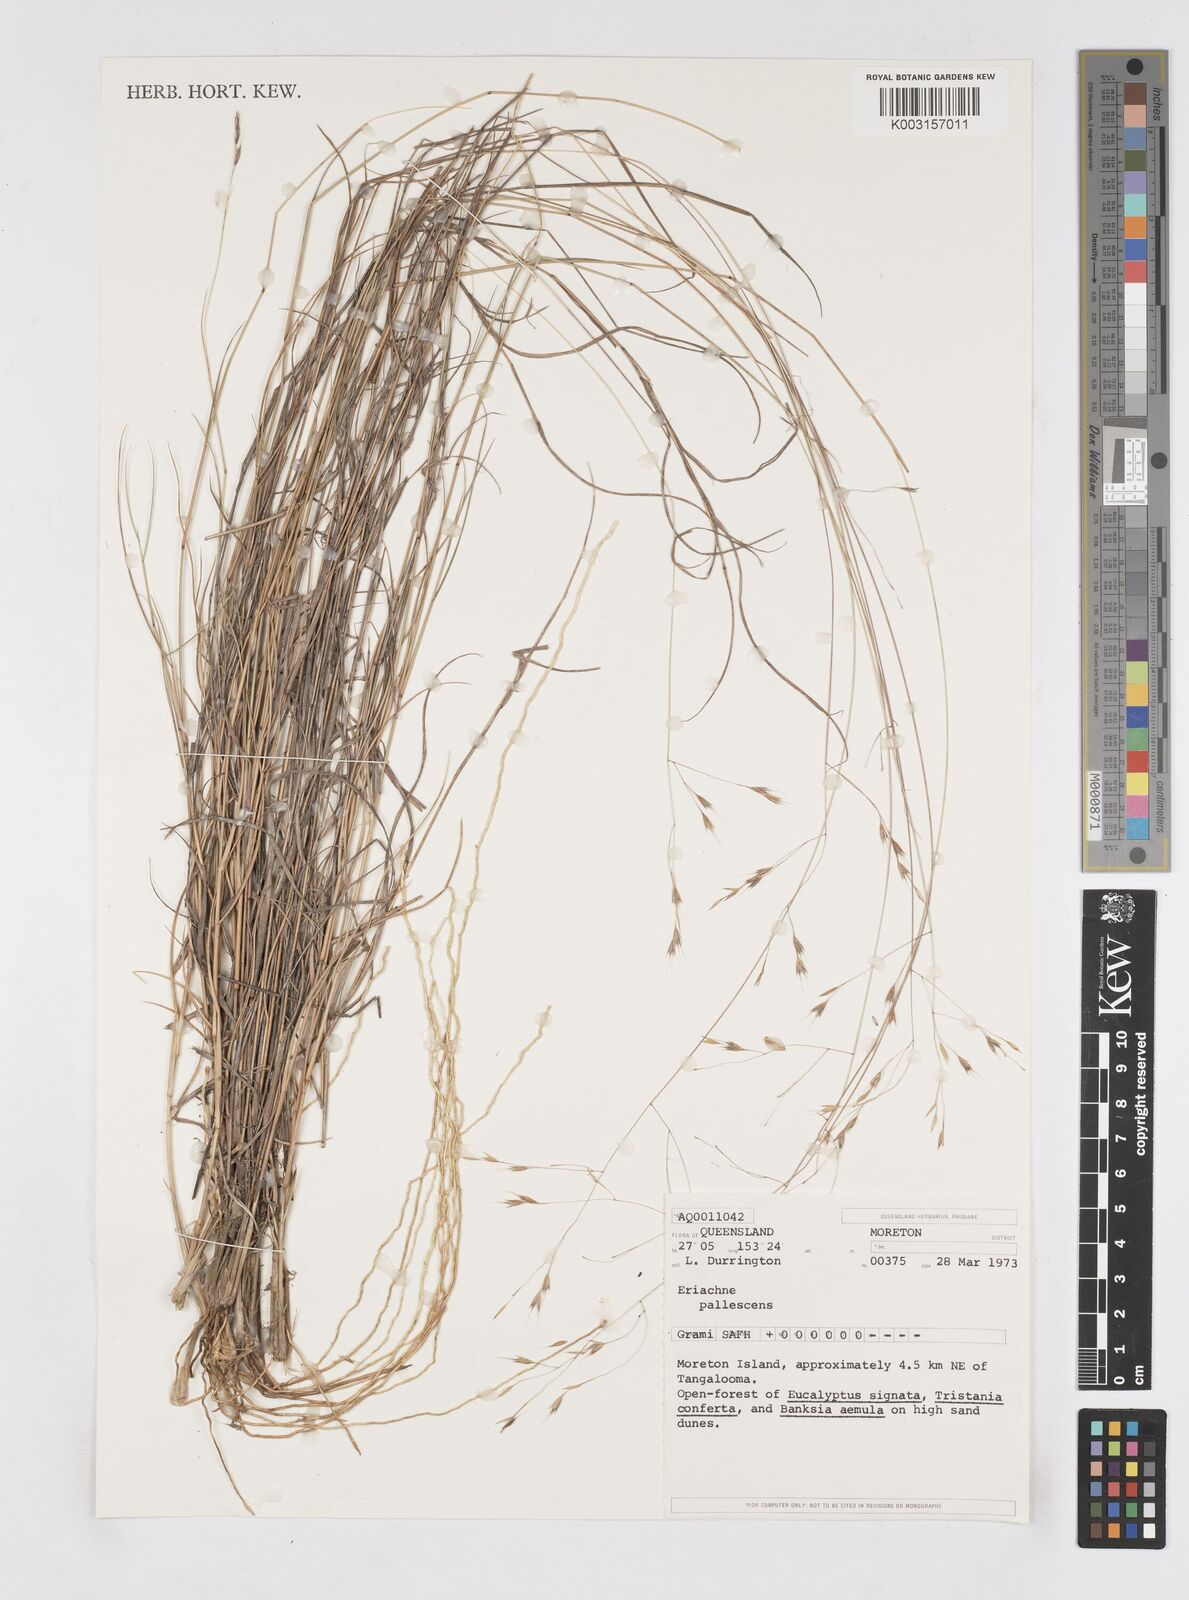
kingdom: Plantae
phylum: Tracheophyta
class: Liliopsida
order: Poales
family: Poaceae
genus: Eriachne
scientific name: Eriachne pallescens
